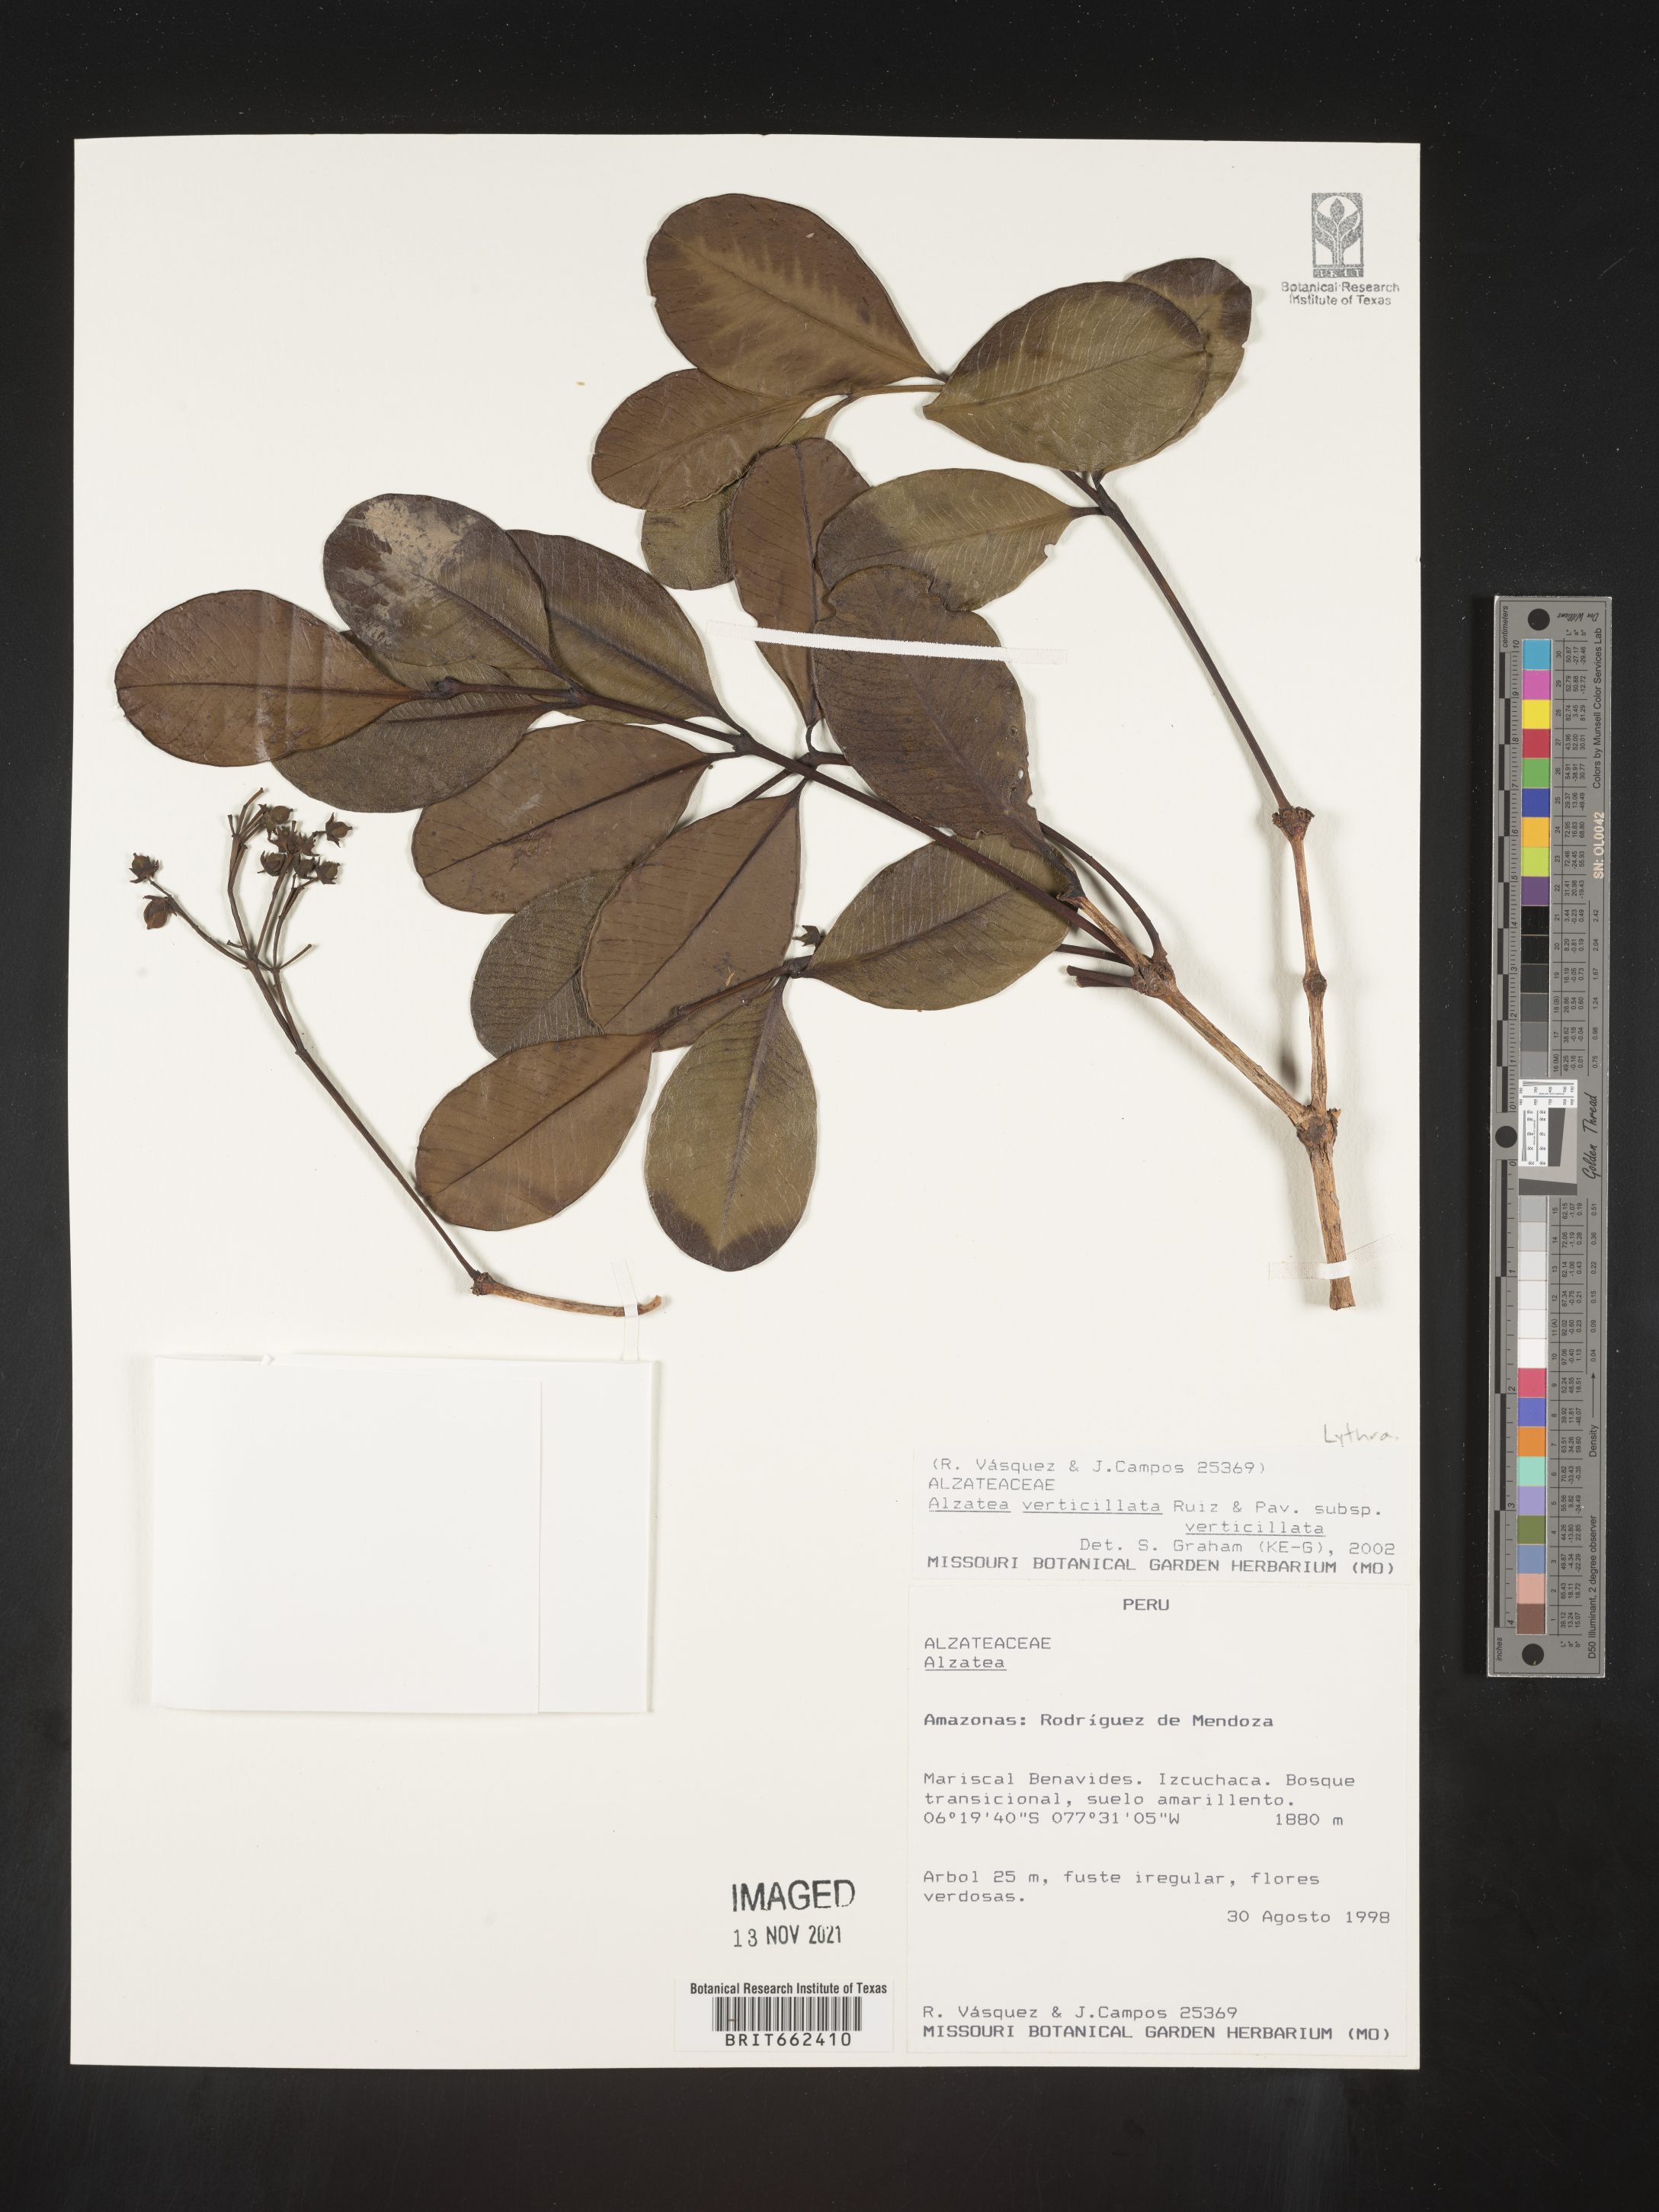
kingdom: Plantae
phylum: Tracheophyta
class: Magnoliopsida
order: Myrtales
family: Alzateaceae
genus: Alzatea
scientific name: Alzatea
